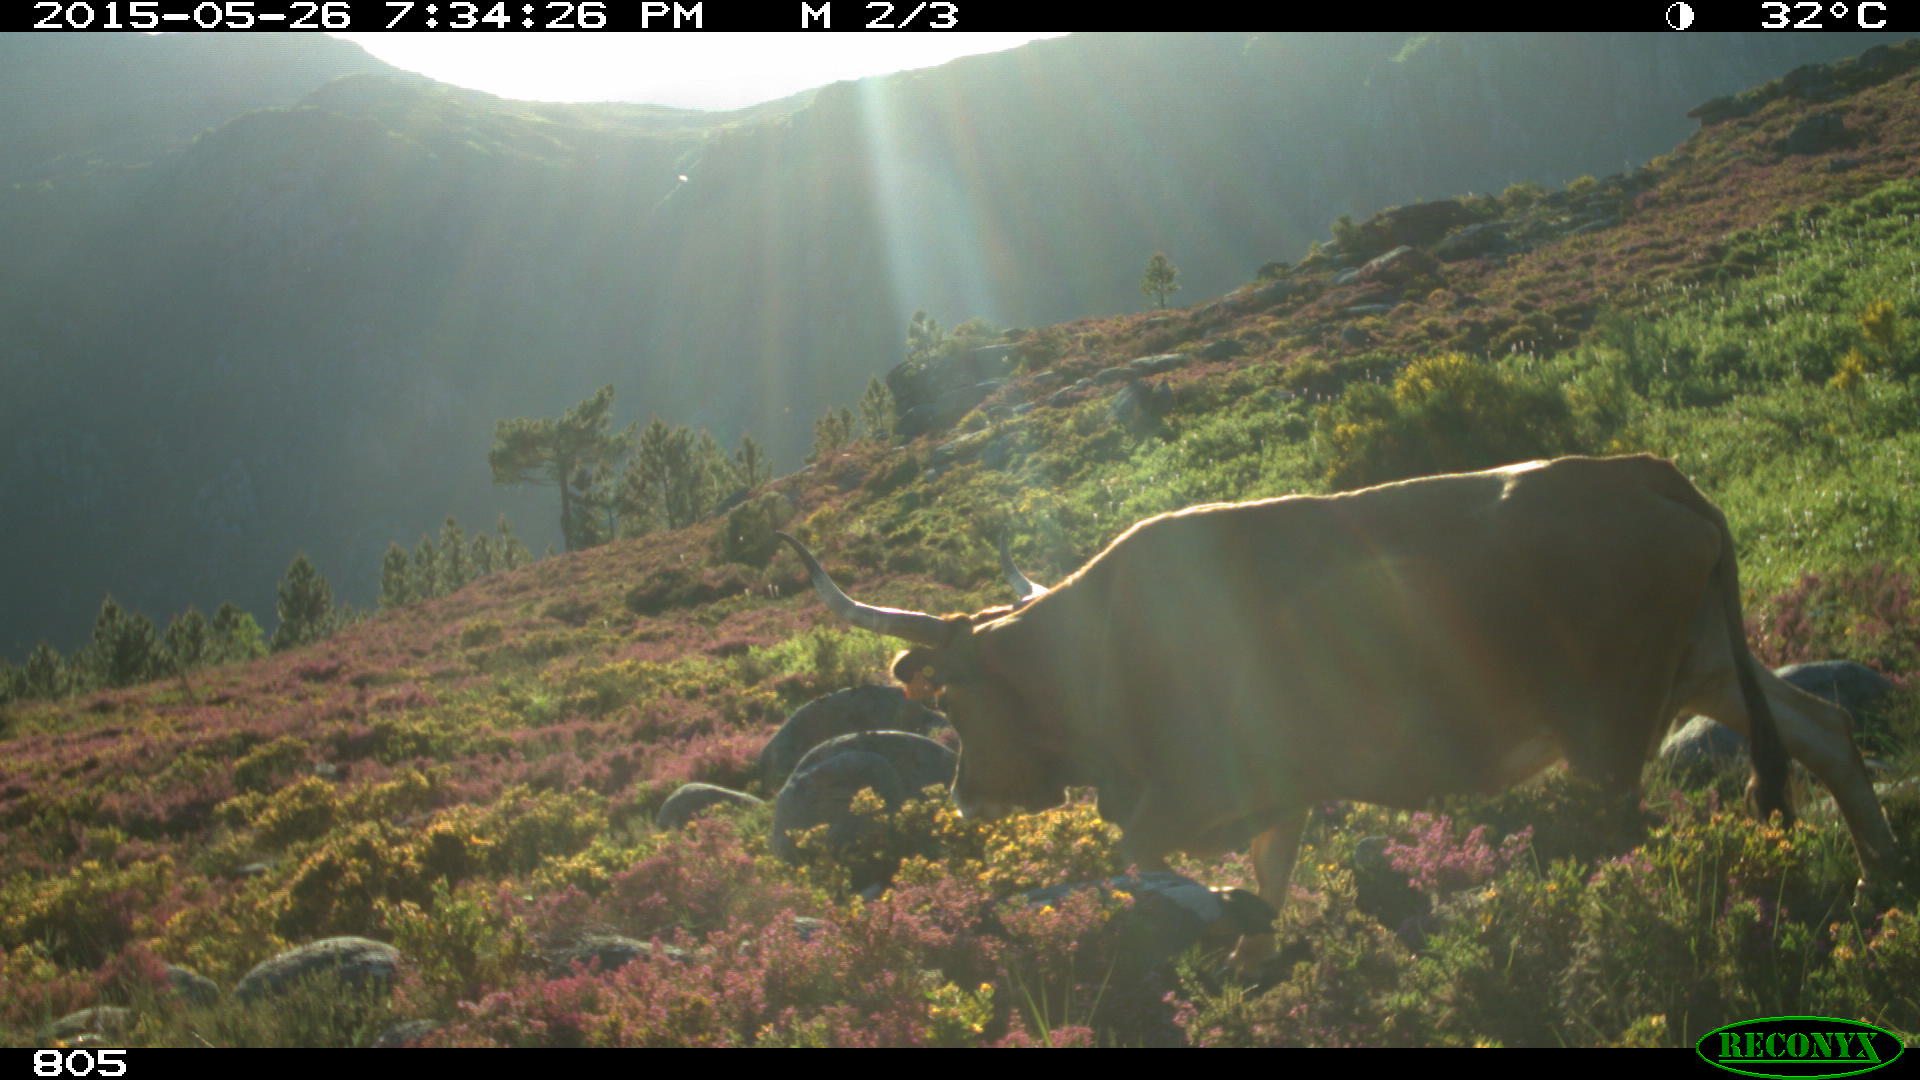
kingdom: Animalia
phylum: Chordata
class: Mammalia
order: Artiodactyla
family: Bovidae
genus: Bos
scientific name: Bos taurus
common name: Domesticated cattle
